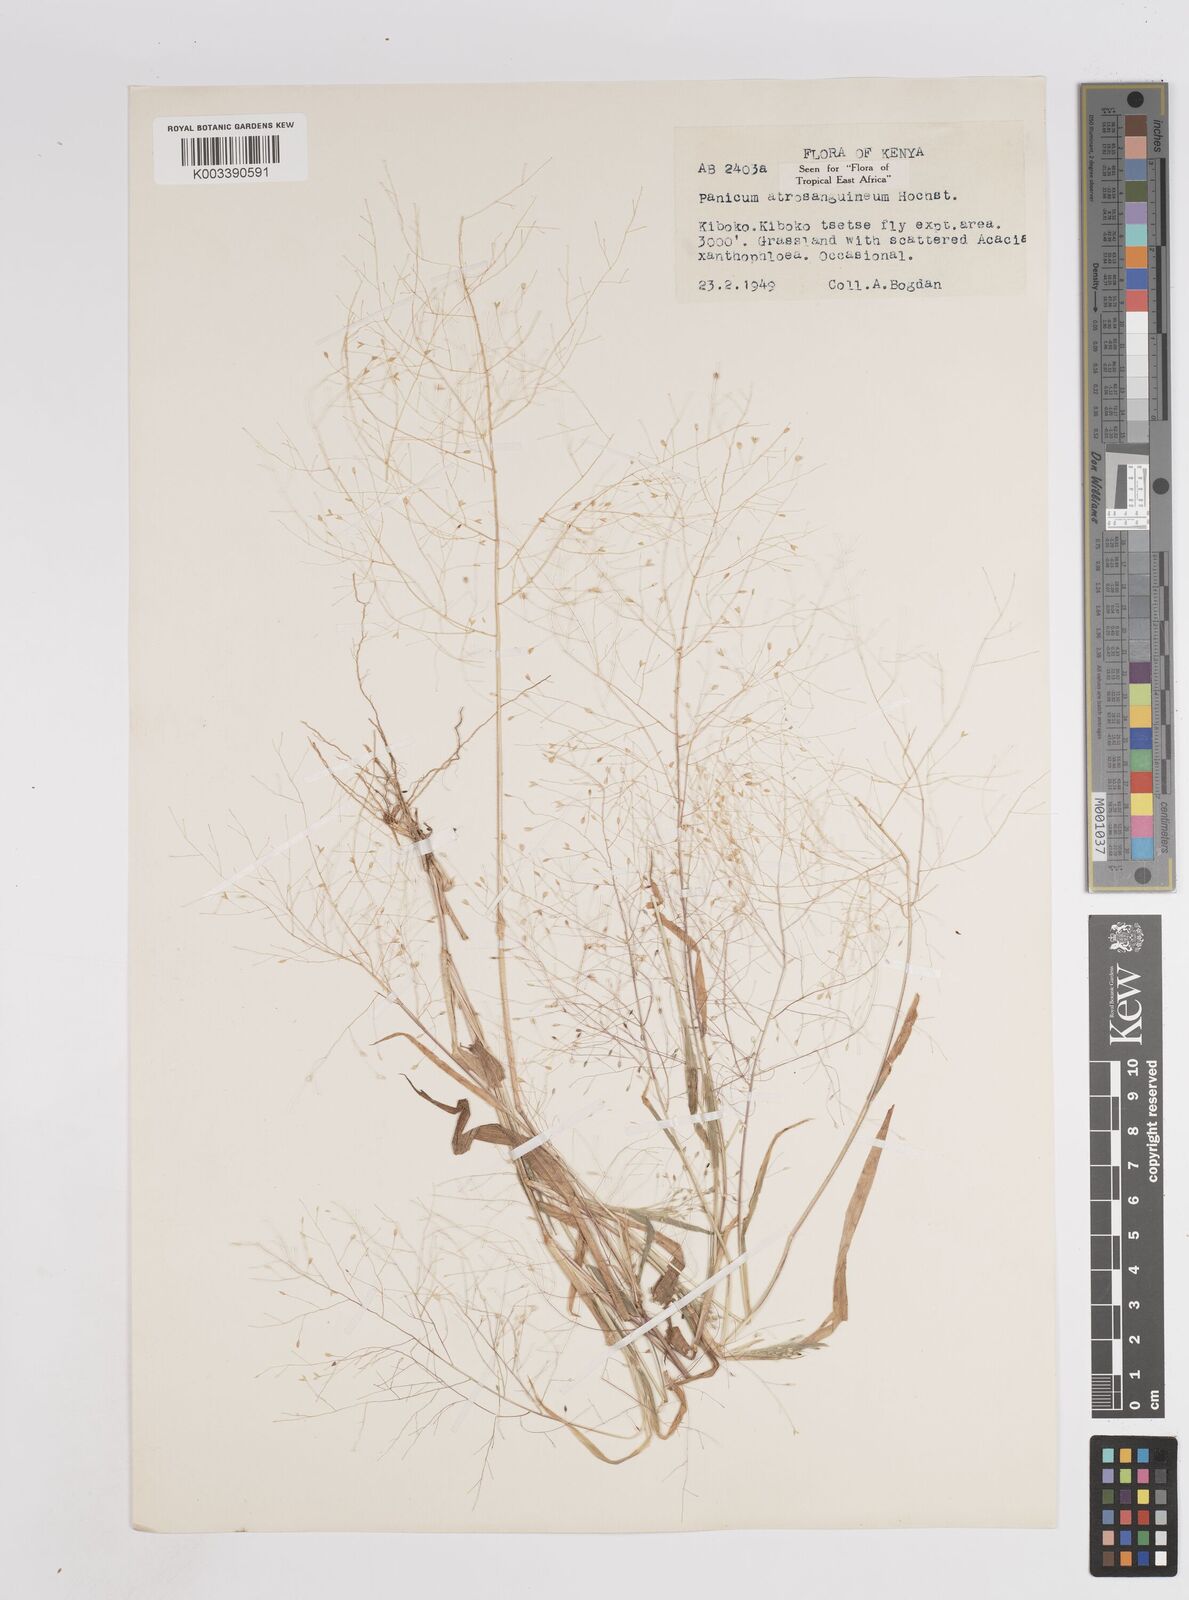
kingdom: Plantae
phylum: Tracheophyta
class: Liliopsida
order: Poales
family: Poaceae
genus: Panicum
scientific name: Panicum atrosanguineum
